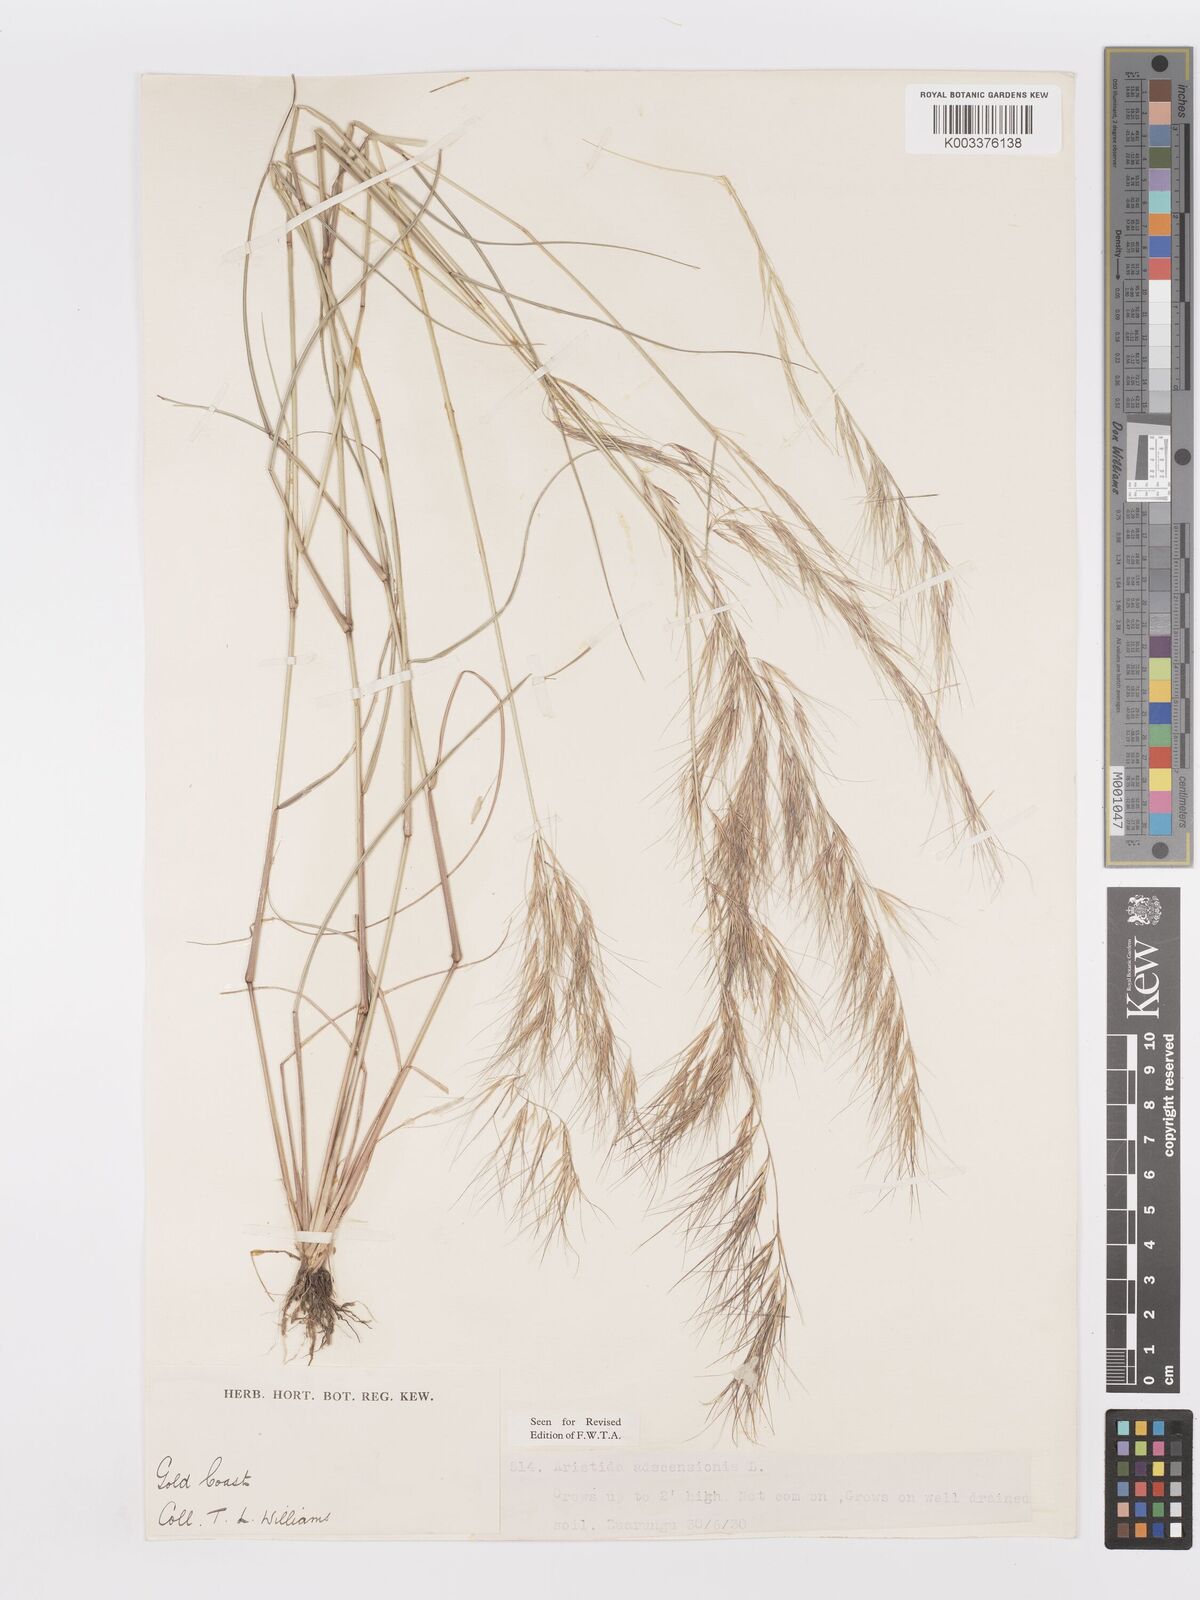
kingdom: Plantae
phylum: Tracheophyta
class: Liliopsida
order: Poales
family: Poaceae
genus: Aristida
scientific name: Aristida adscensionis
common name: Sixweeks threeawn
